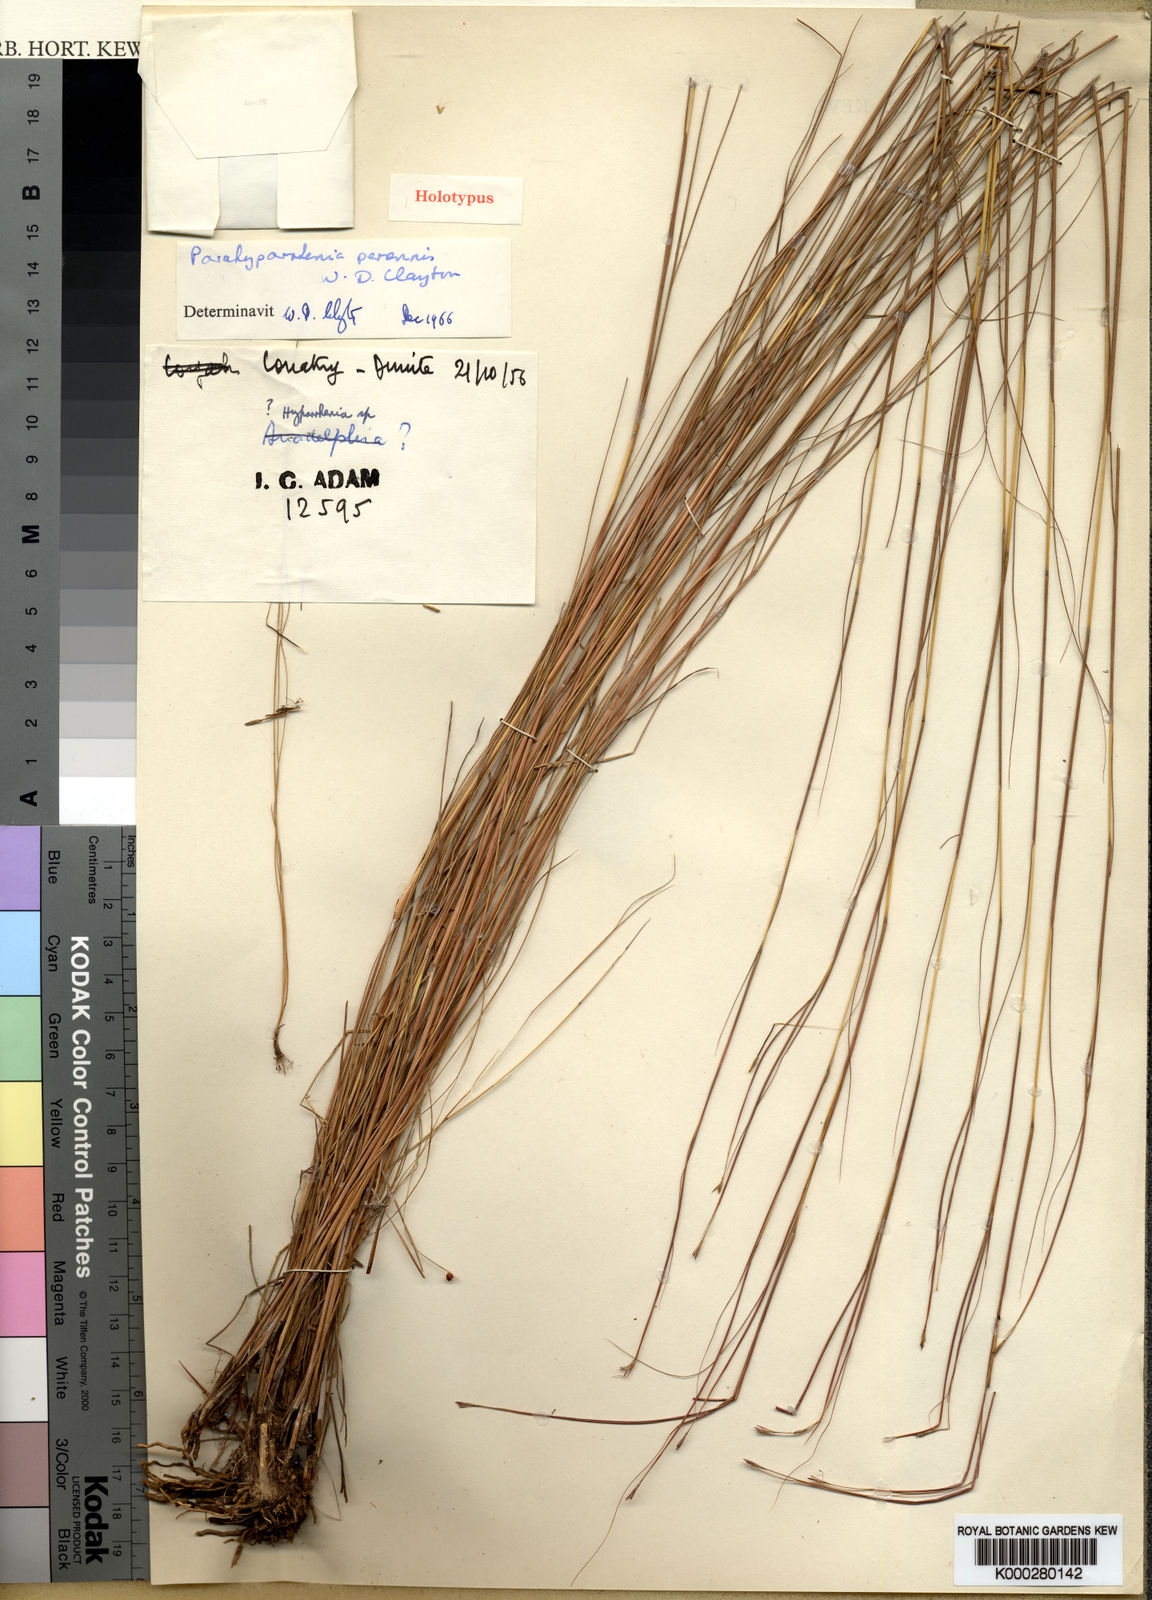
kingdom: Plantae
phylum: Tracheophyta
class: Liliopsida
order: Poales
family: Poaceae
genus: Parahyparrhenia
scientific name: Parahyparrhenia perennis
